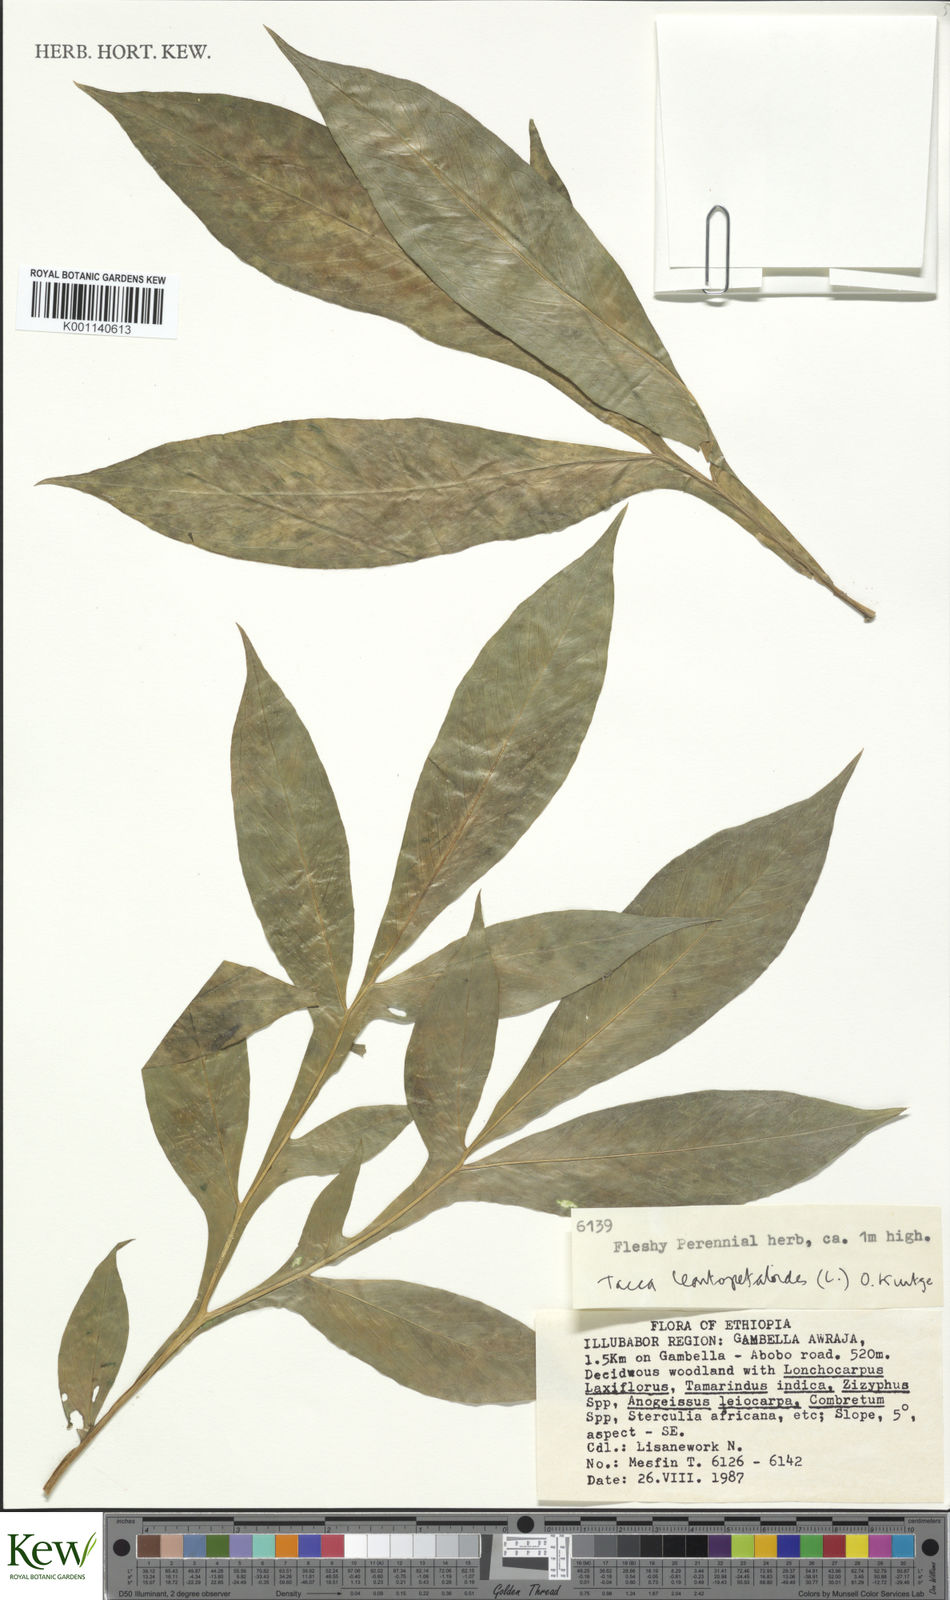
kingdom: Plantae
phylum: Tracheophyta
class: Liliopsida
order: Dioscoreales
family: Dioscoreaceae
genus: Tacca
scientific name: Tacca leontopetaloides
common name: Arrowroot
